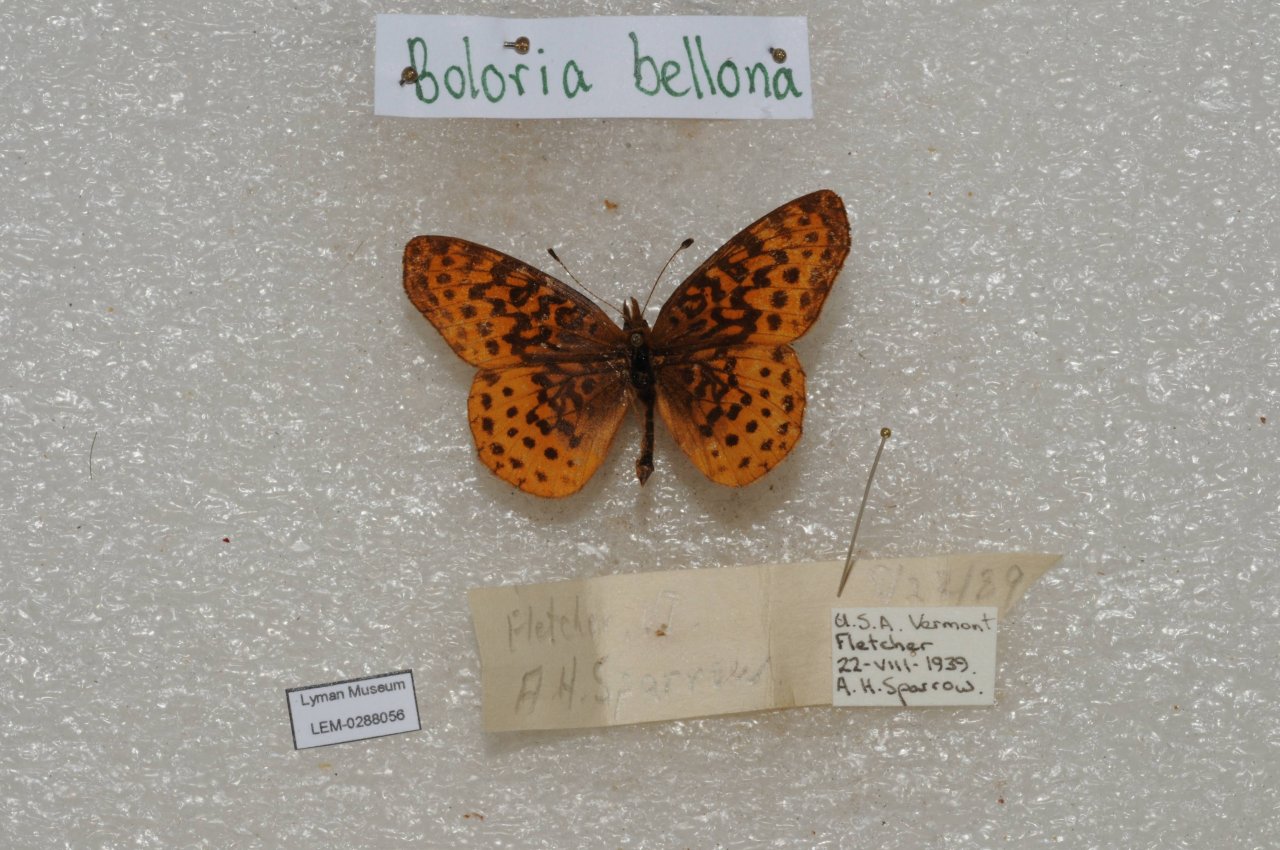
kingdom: Animalia
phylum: Arthropoda
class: Insecta
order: Lepidoptera
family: Nymphalidae
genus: Clossiana
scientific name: Clossiana toddi
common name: Meadow Fritillary
